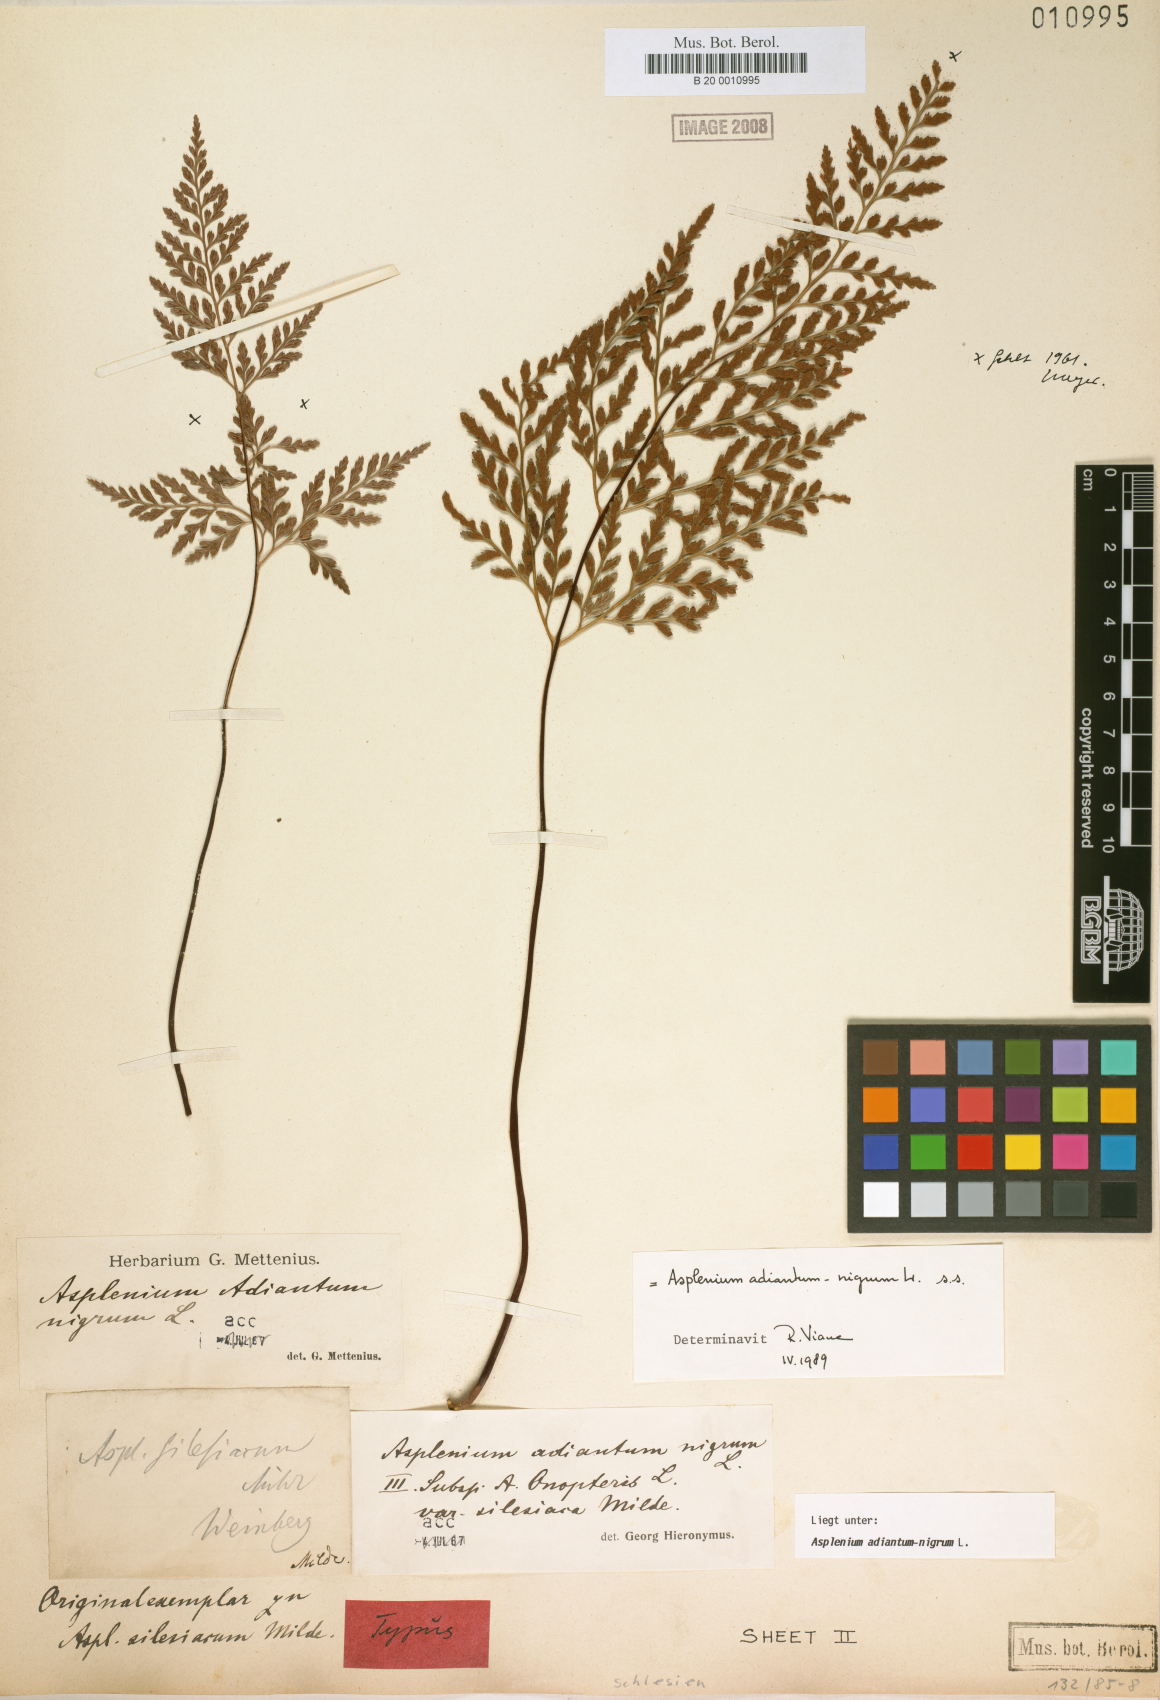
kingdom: Plantae
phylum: Tracheophyta
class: Polypodiopsida
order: Polypodiales
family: Aspleniaceae
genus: Asplenium
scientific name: Asplenium adiantum-nigrum
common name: Black spleenwort
